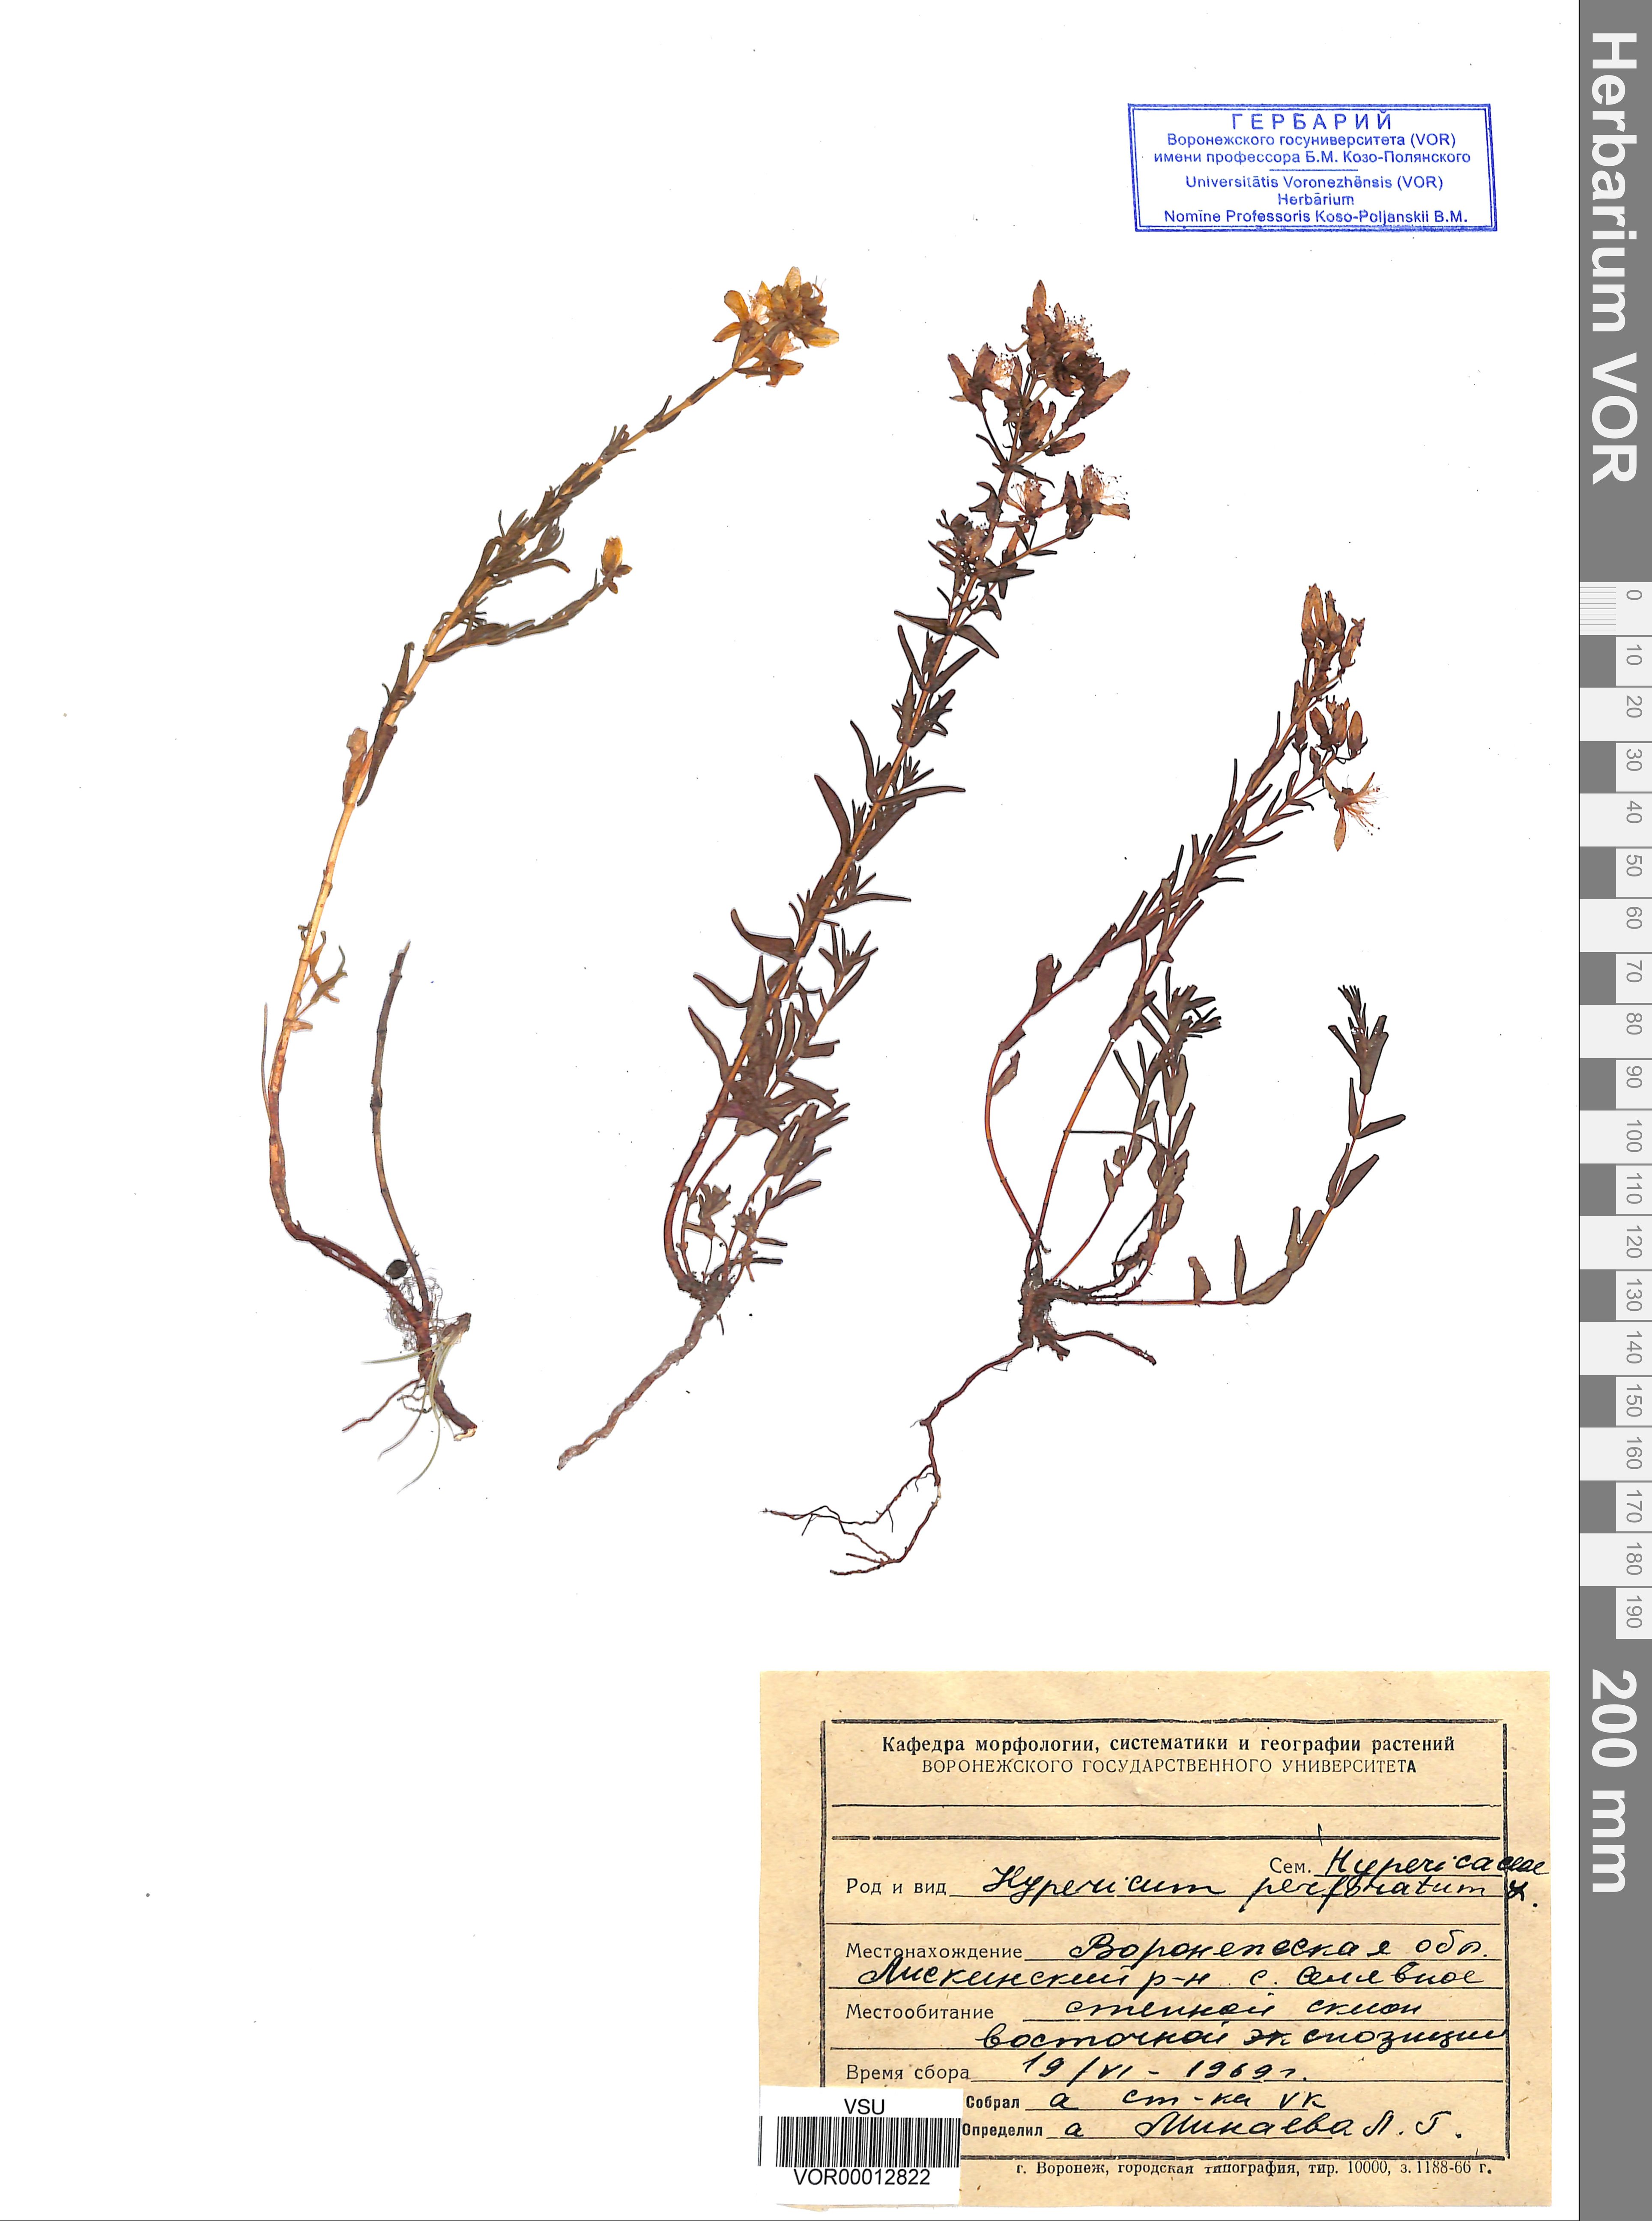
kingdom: Plantae
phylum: Tracheophyta
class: Magnoliopsida
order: Malpighiales
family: Hypericaceae
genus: Hypericum
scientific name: Hypericum perforatum
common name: Common st. johnswort
